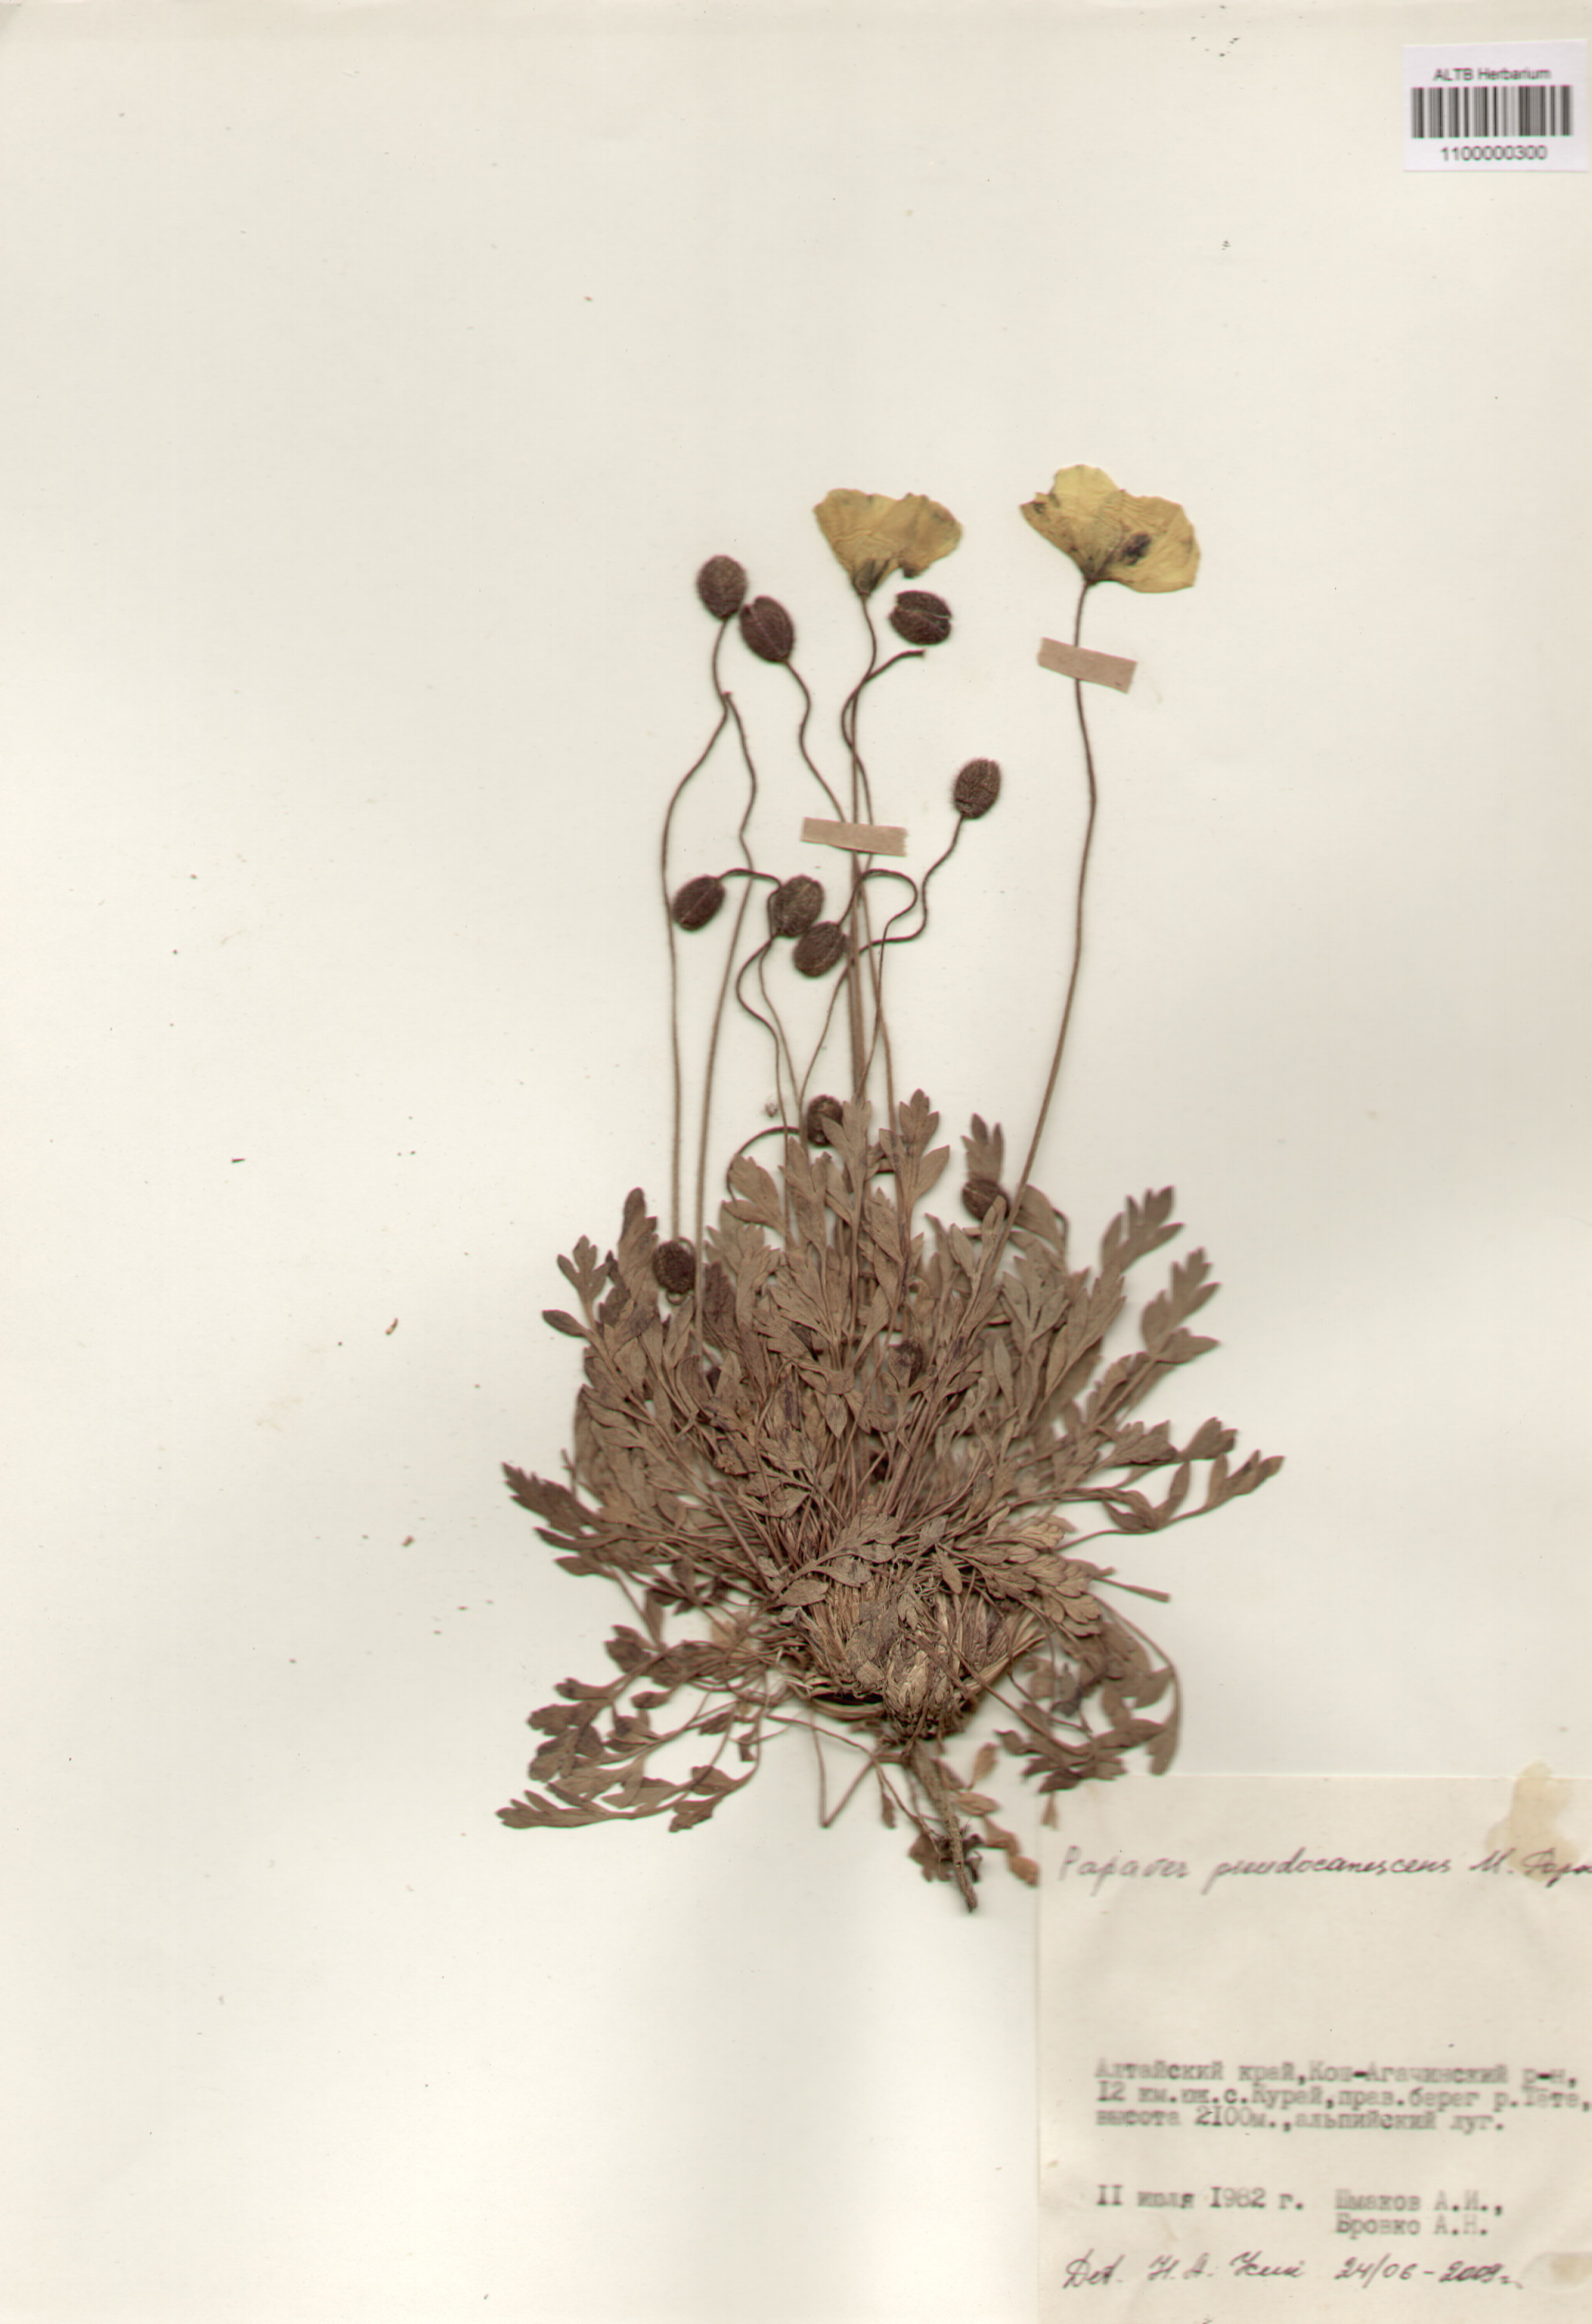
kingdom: Plantae
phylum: Tracheophyta
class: Magnoliopsida
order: Ranunculales
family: Papaveraceae
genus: Papaver
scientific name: Papaver canescens
